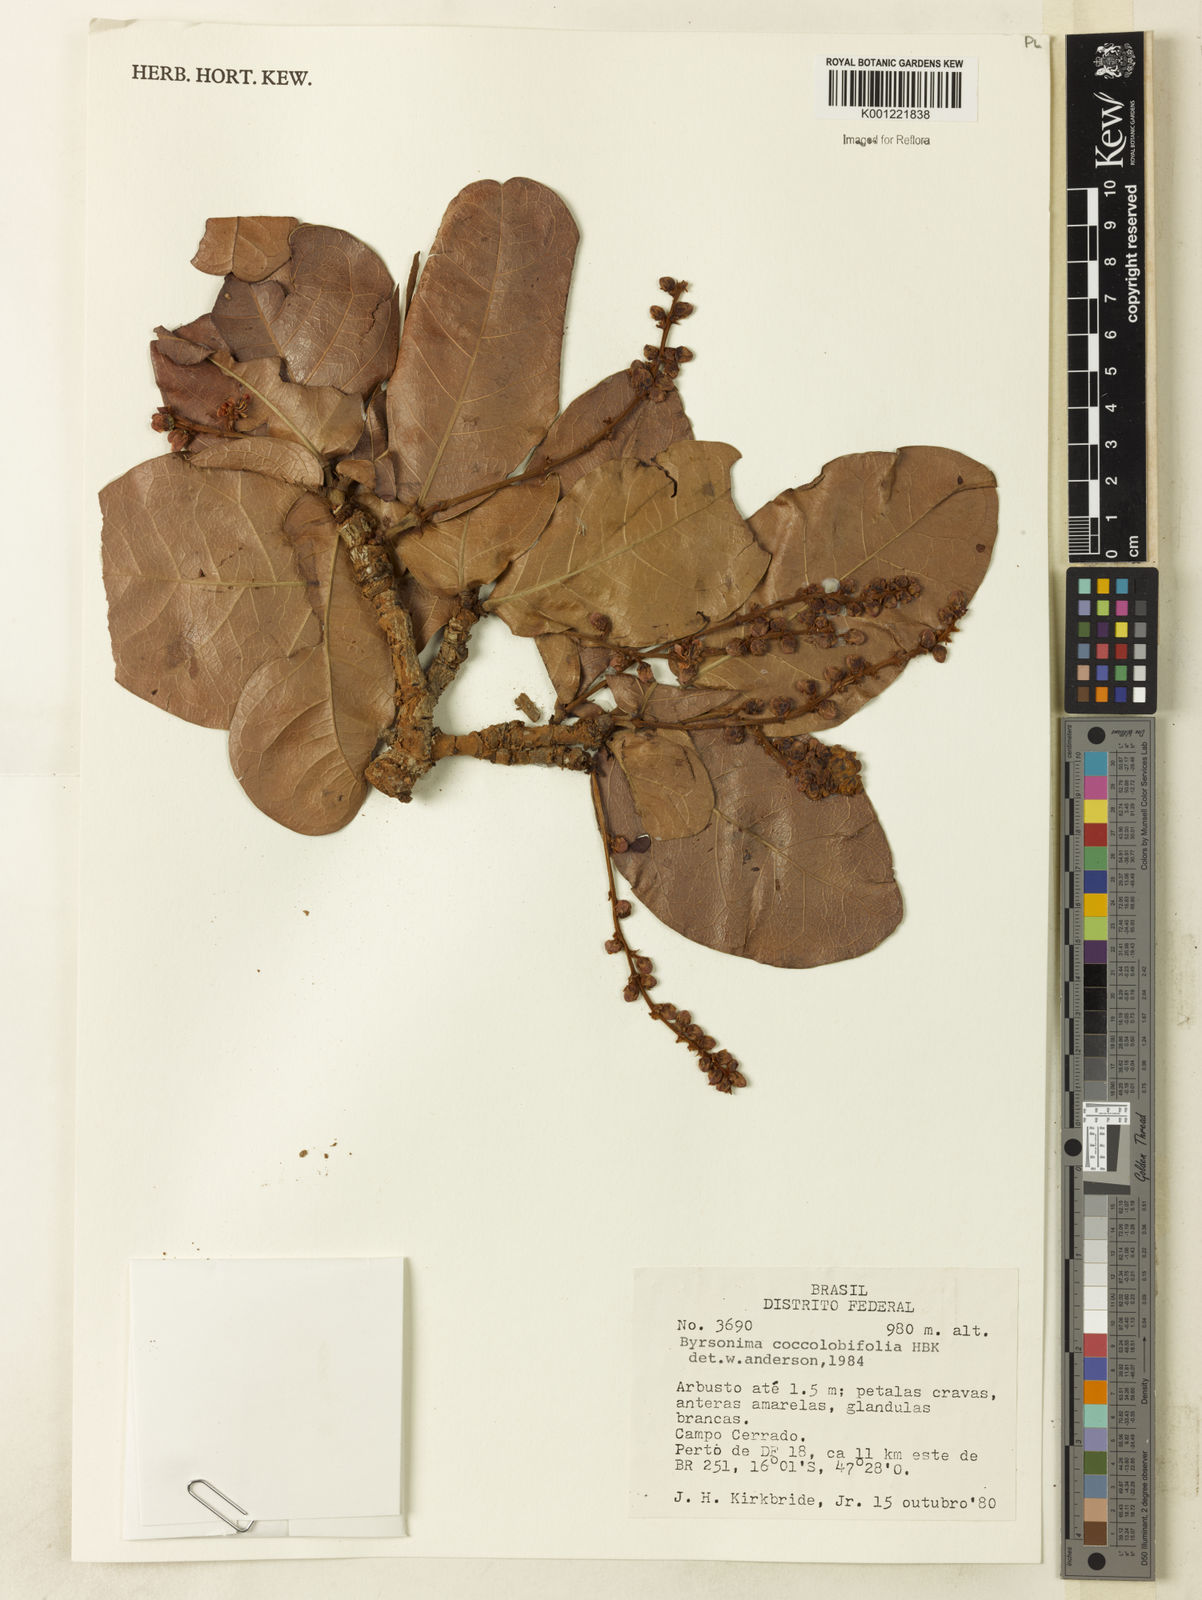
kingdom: Plantae
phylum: Tracheophyta
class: Magnoliopsida
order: Malpighiales
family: Malpighiaceae
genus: Byrsonima
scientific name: Byrsonima coccolobifolia
